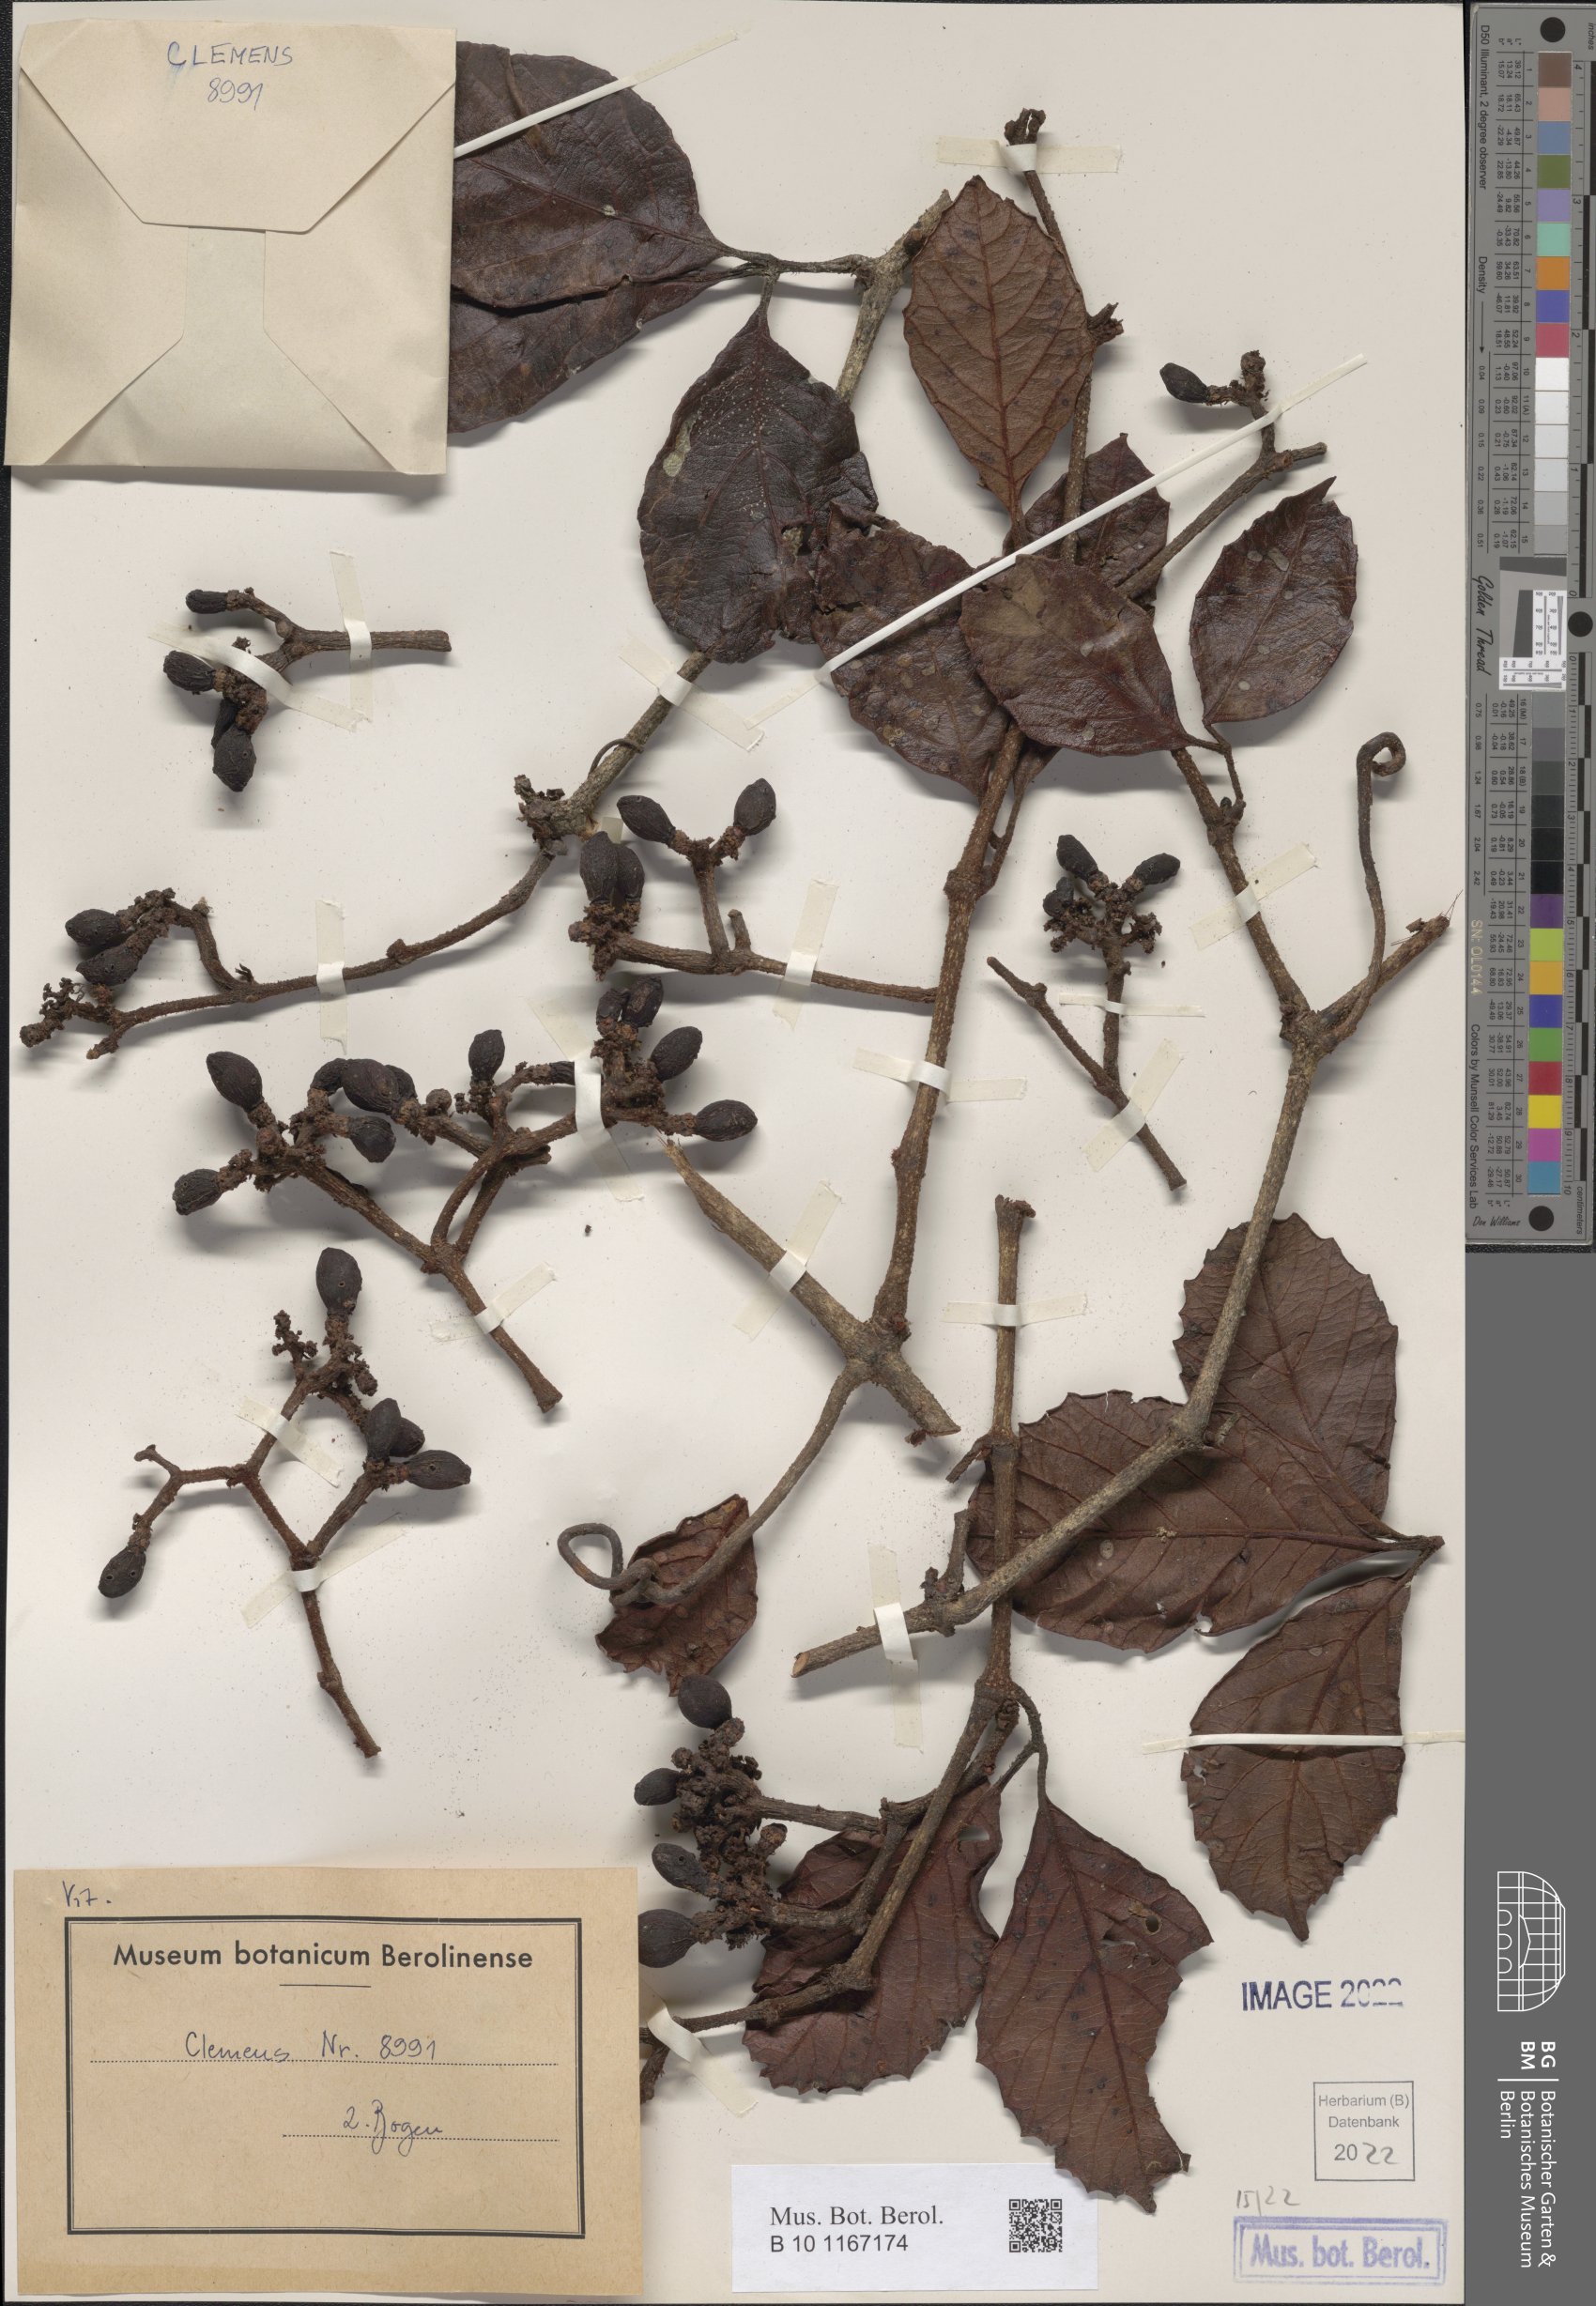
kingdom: Plantae
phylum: Tracheophyta
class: Magnoliopsida
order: Vitales
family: Vitaceae
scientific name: Vitaceae
